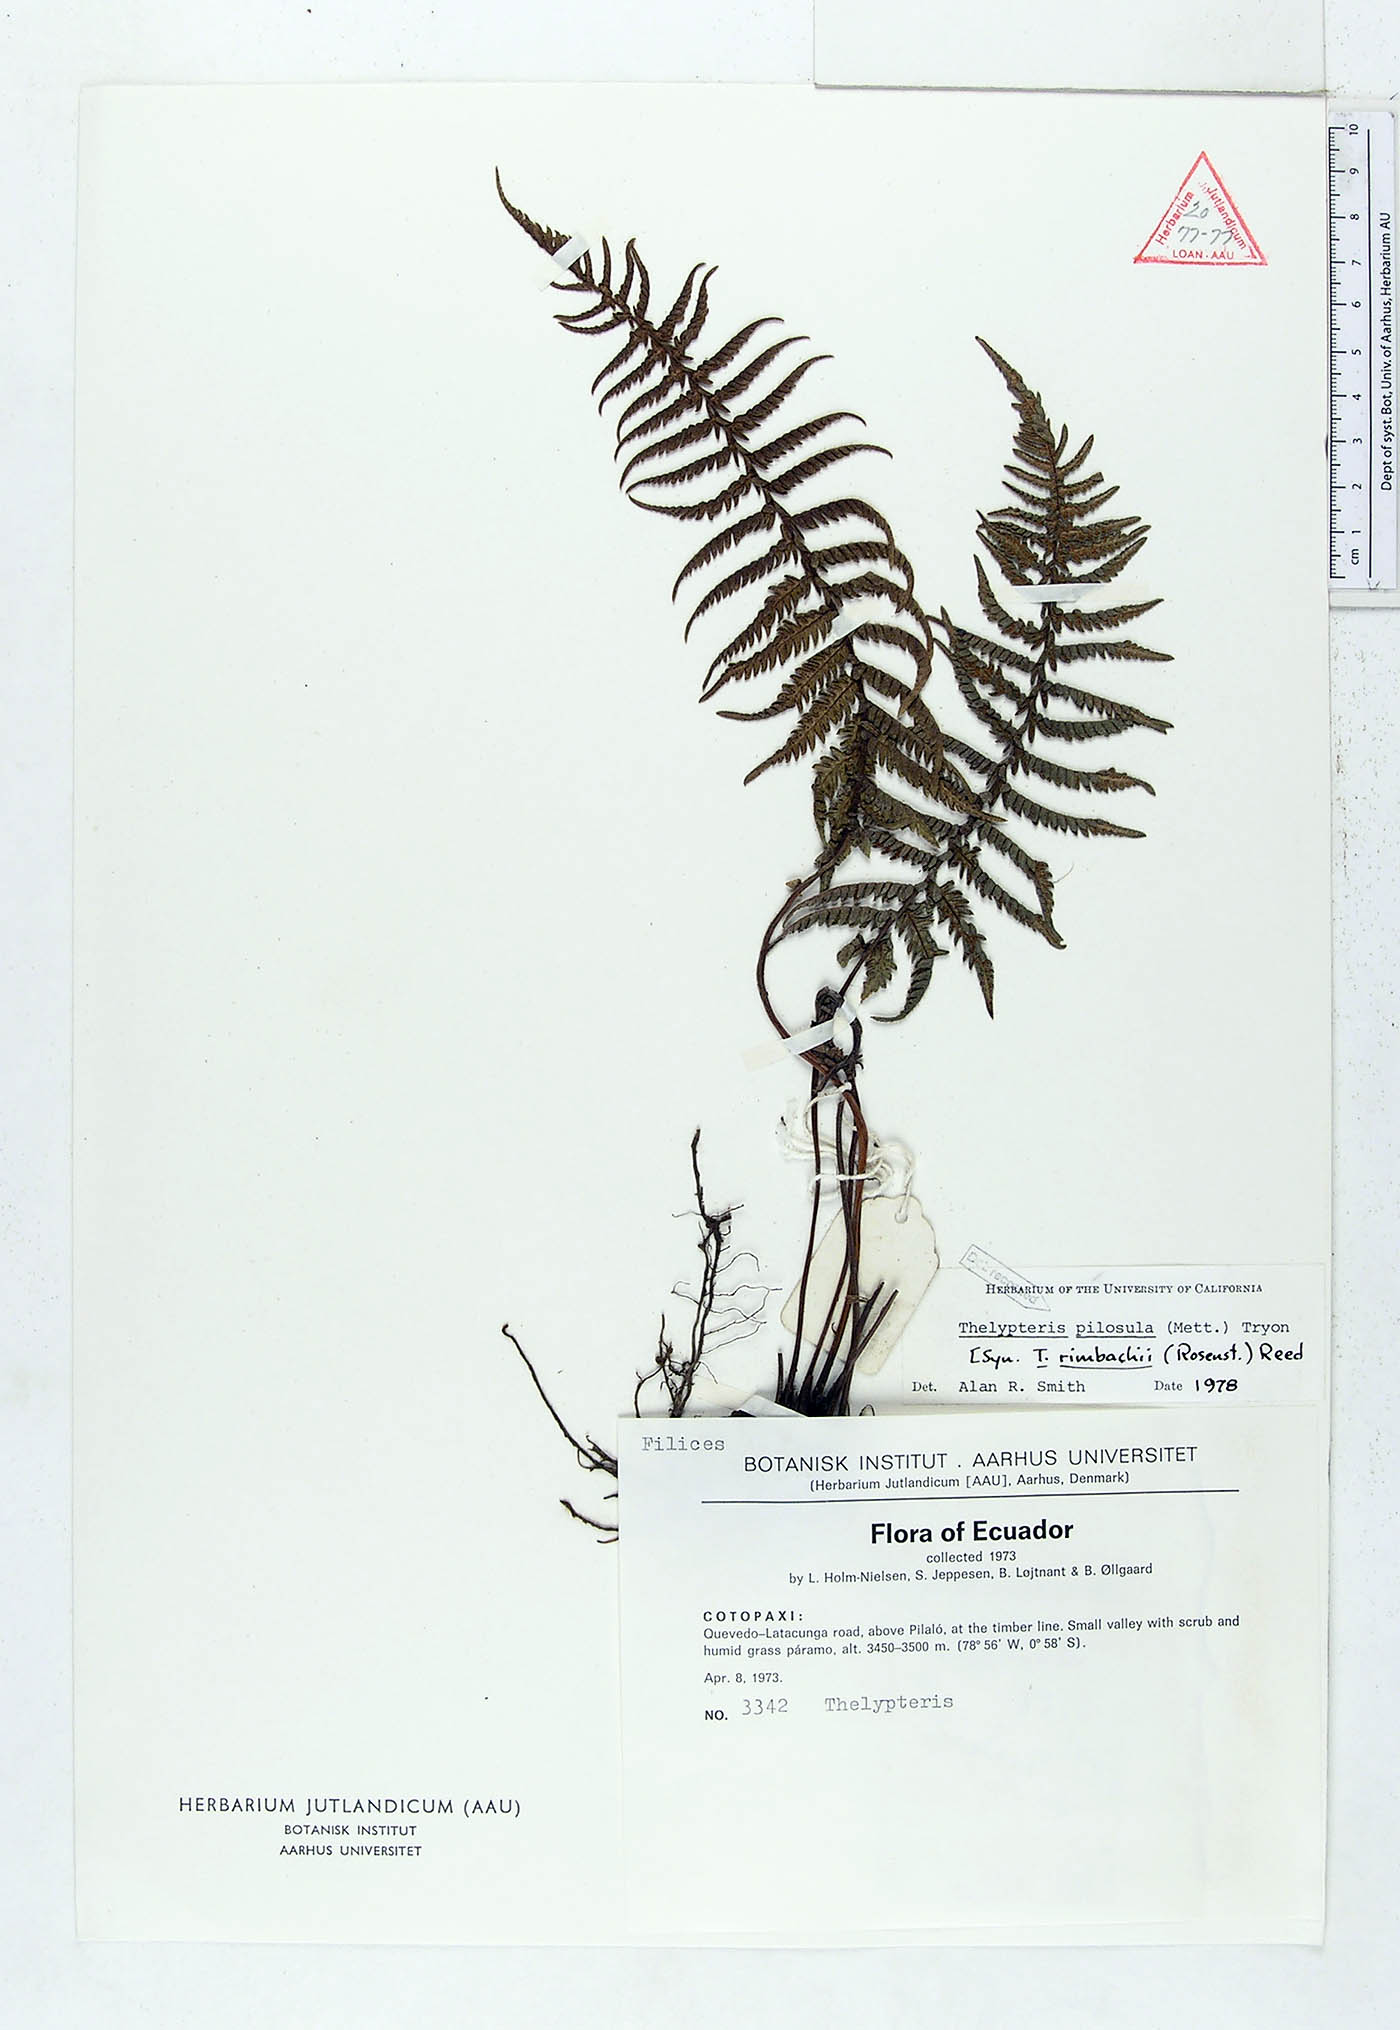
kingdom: Plantae
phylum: Tracheophyta
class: Polypodiopsida
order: Polypodiales
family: Thelypteridaceae
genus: Amauropelta
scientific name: Amauropelta pilosula
